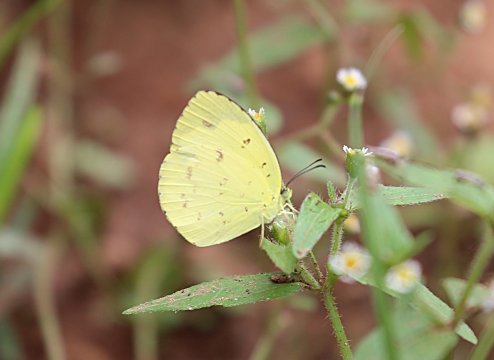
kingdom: Animalia
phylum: Arthropoda
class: Insecta
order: Lepidoptera
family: Pieridae
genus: Eurema
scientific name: Eurema senegalensis
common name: Forest Grass Yellow
